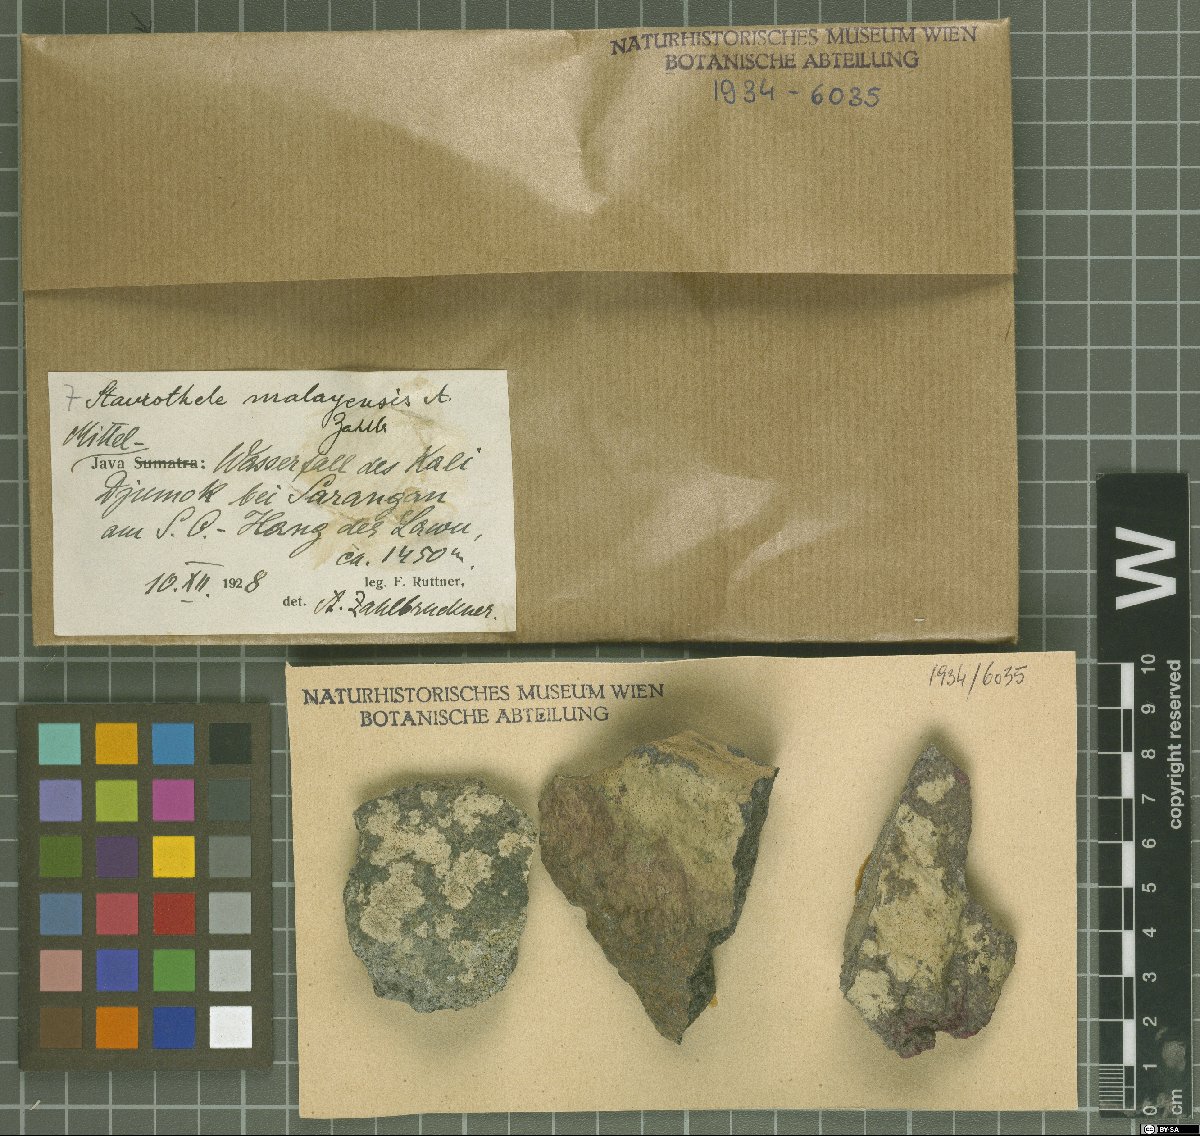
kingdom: Fungi
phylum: Ascomycota
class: Eurotiomycetes
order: Verrucariales
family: Verrucariaceae
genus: Willeya
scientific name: Willeya malayensis
